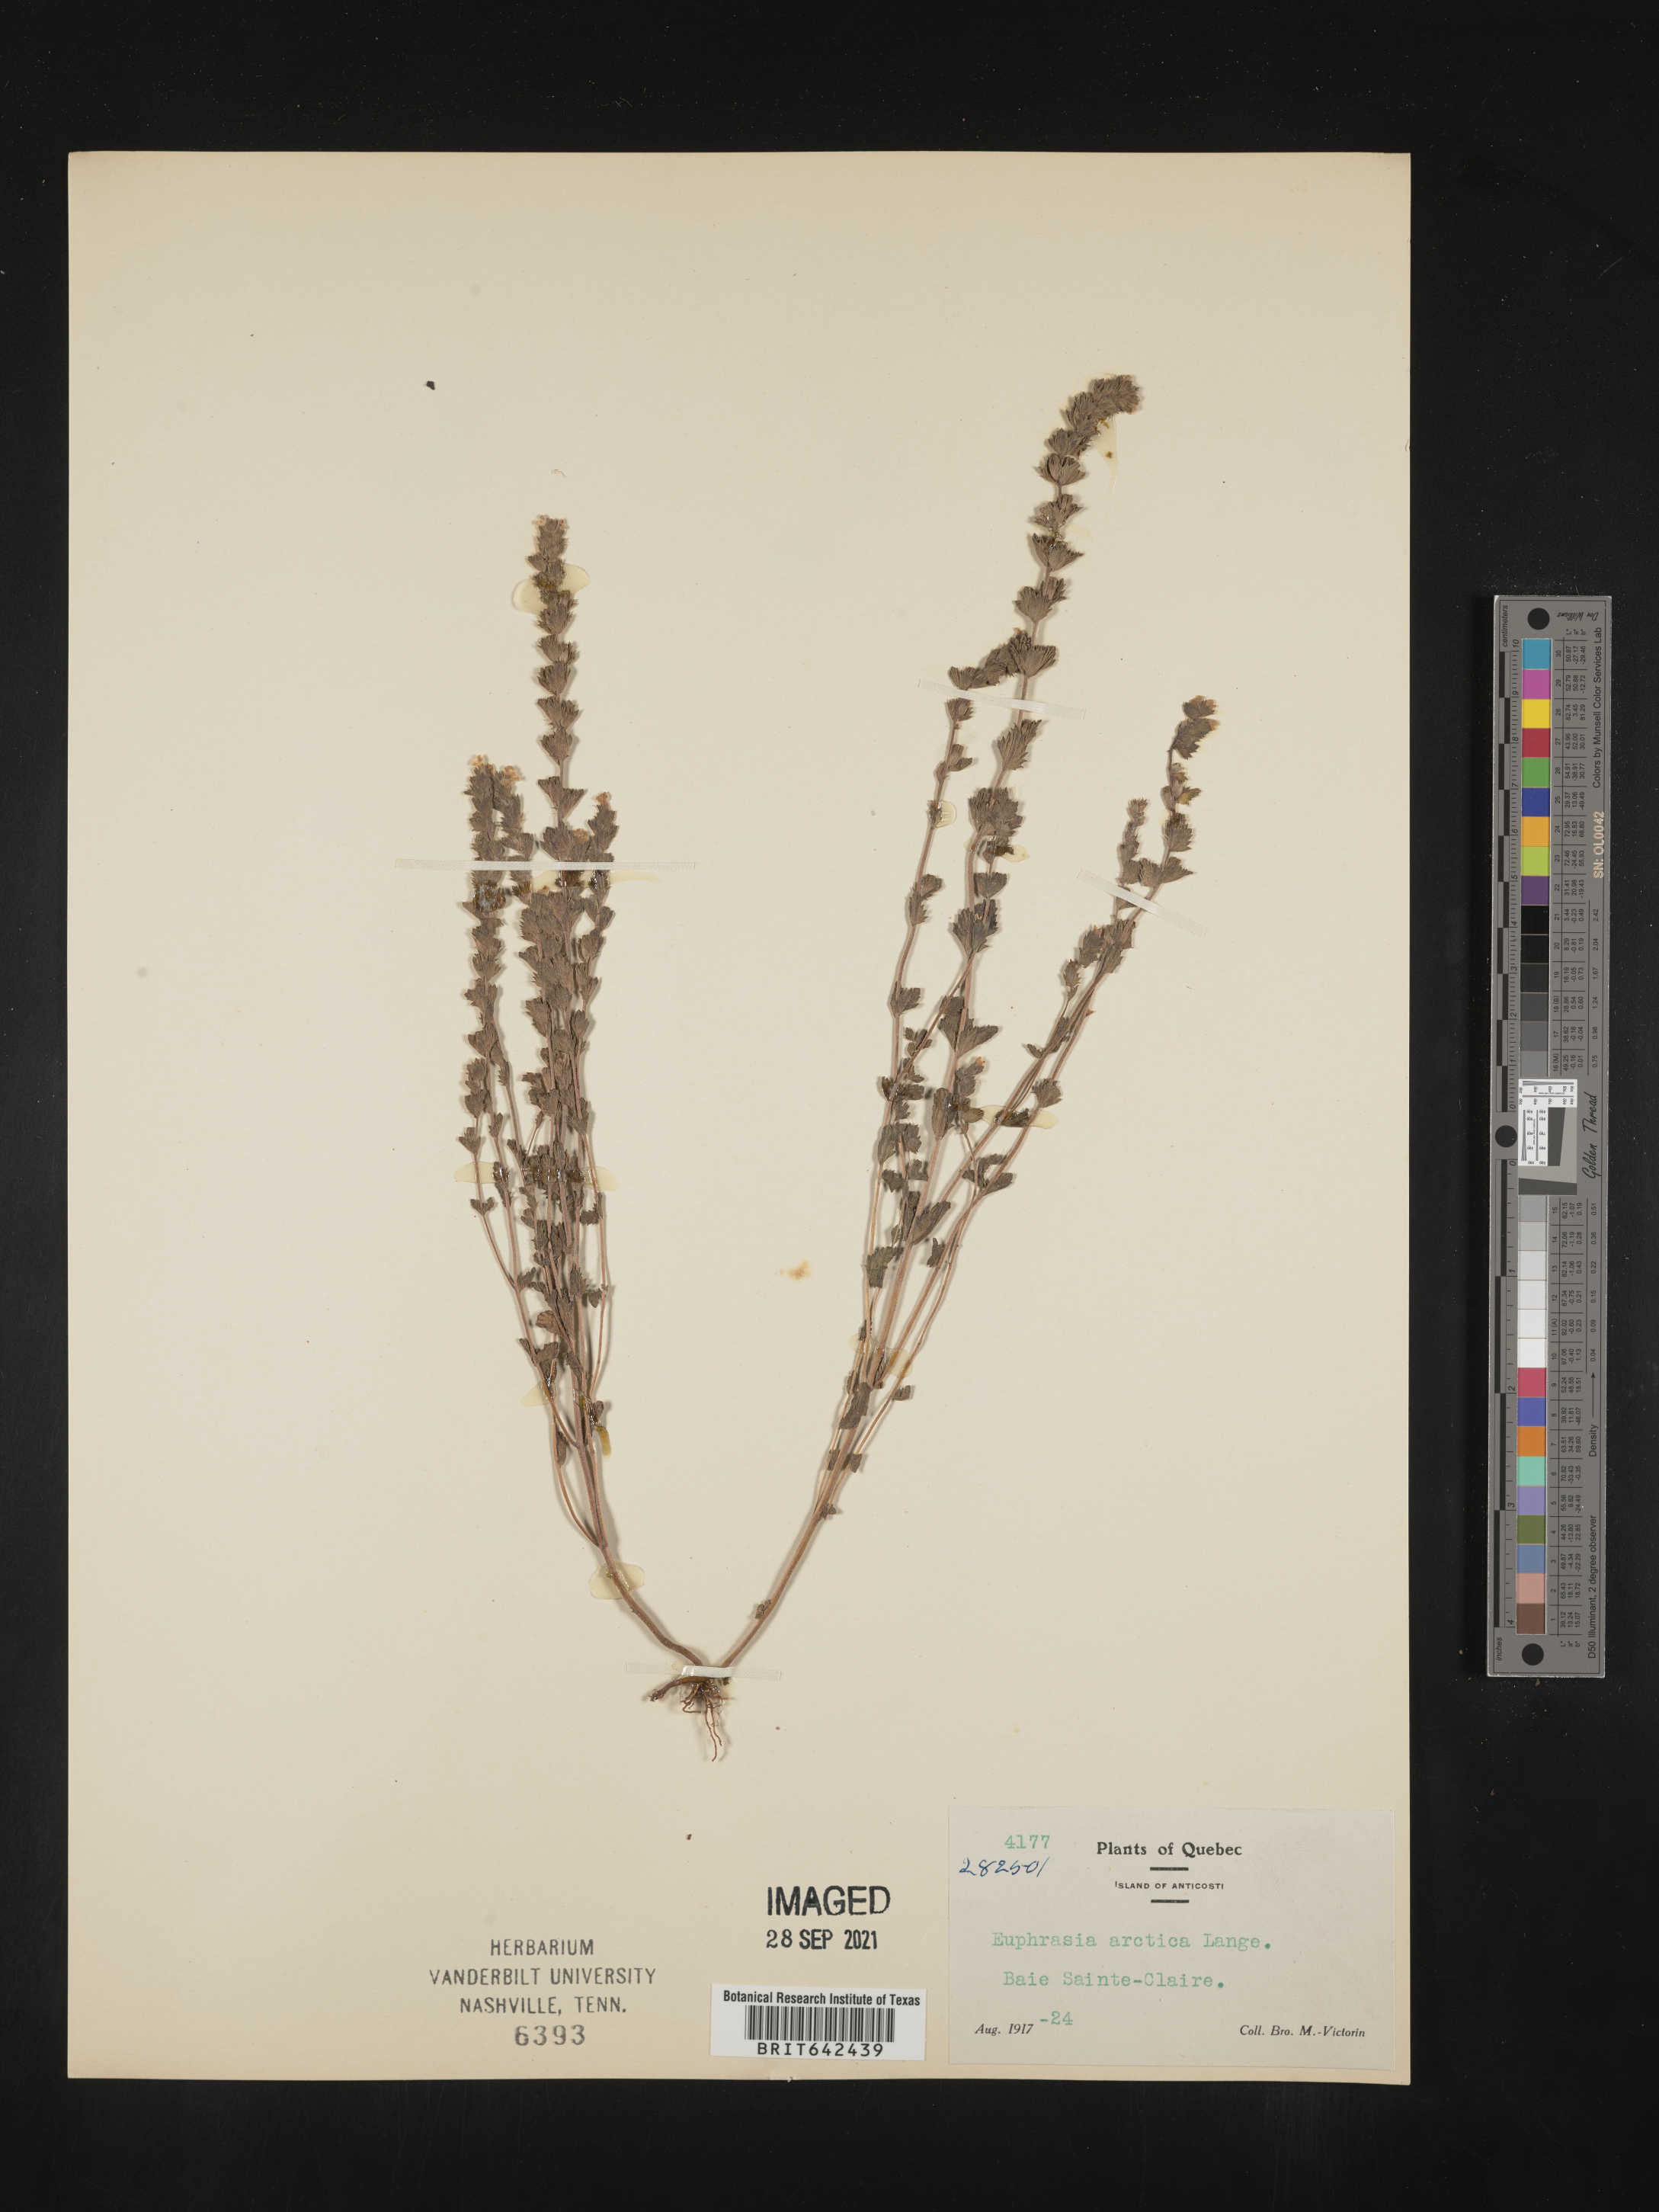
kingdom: Plantae
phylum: Tracheophyta
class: Magnoliopsida
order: Lamiales
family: Orobanchaceae
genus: Euphrasia
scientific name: Euphrasia
